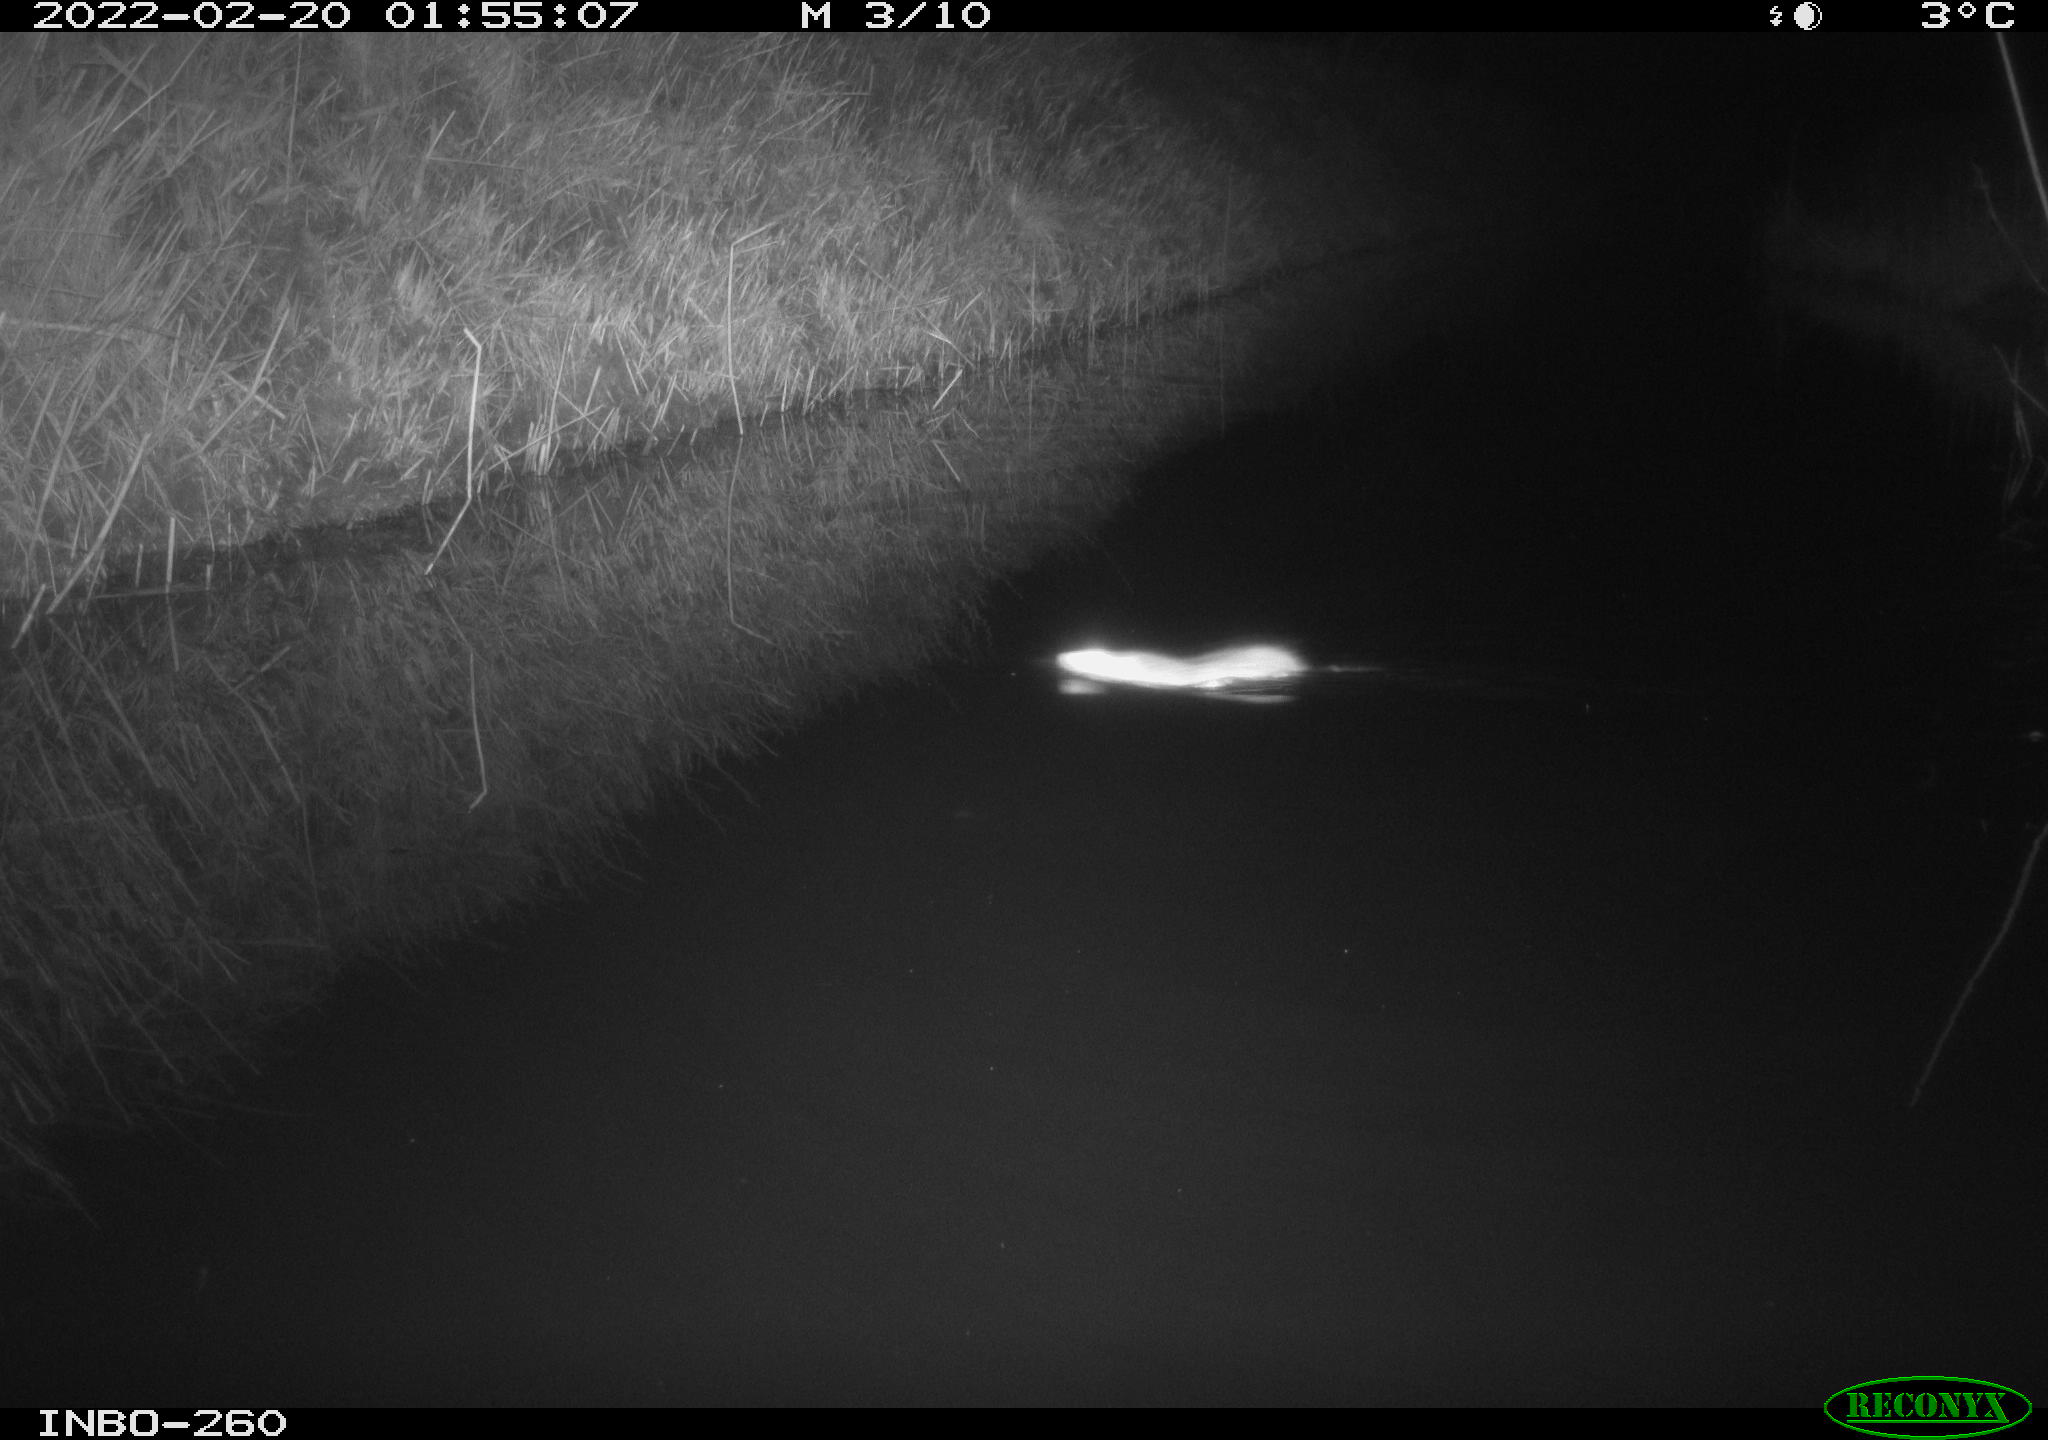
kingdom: Animalia
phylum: Chordata
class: Mammalia
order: Rodentia
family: Muridae
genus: Rattus
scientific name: Rattus norvegicus
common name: Brown rat
